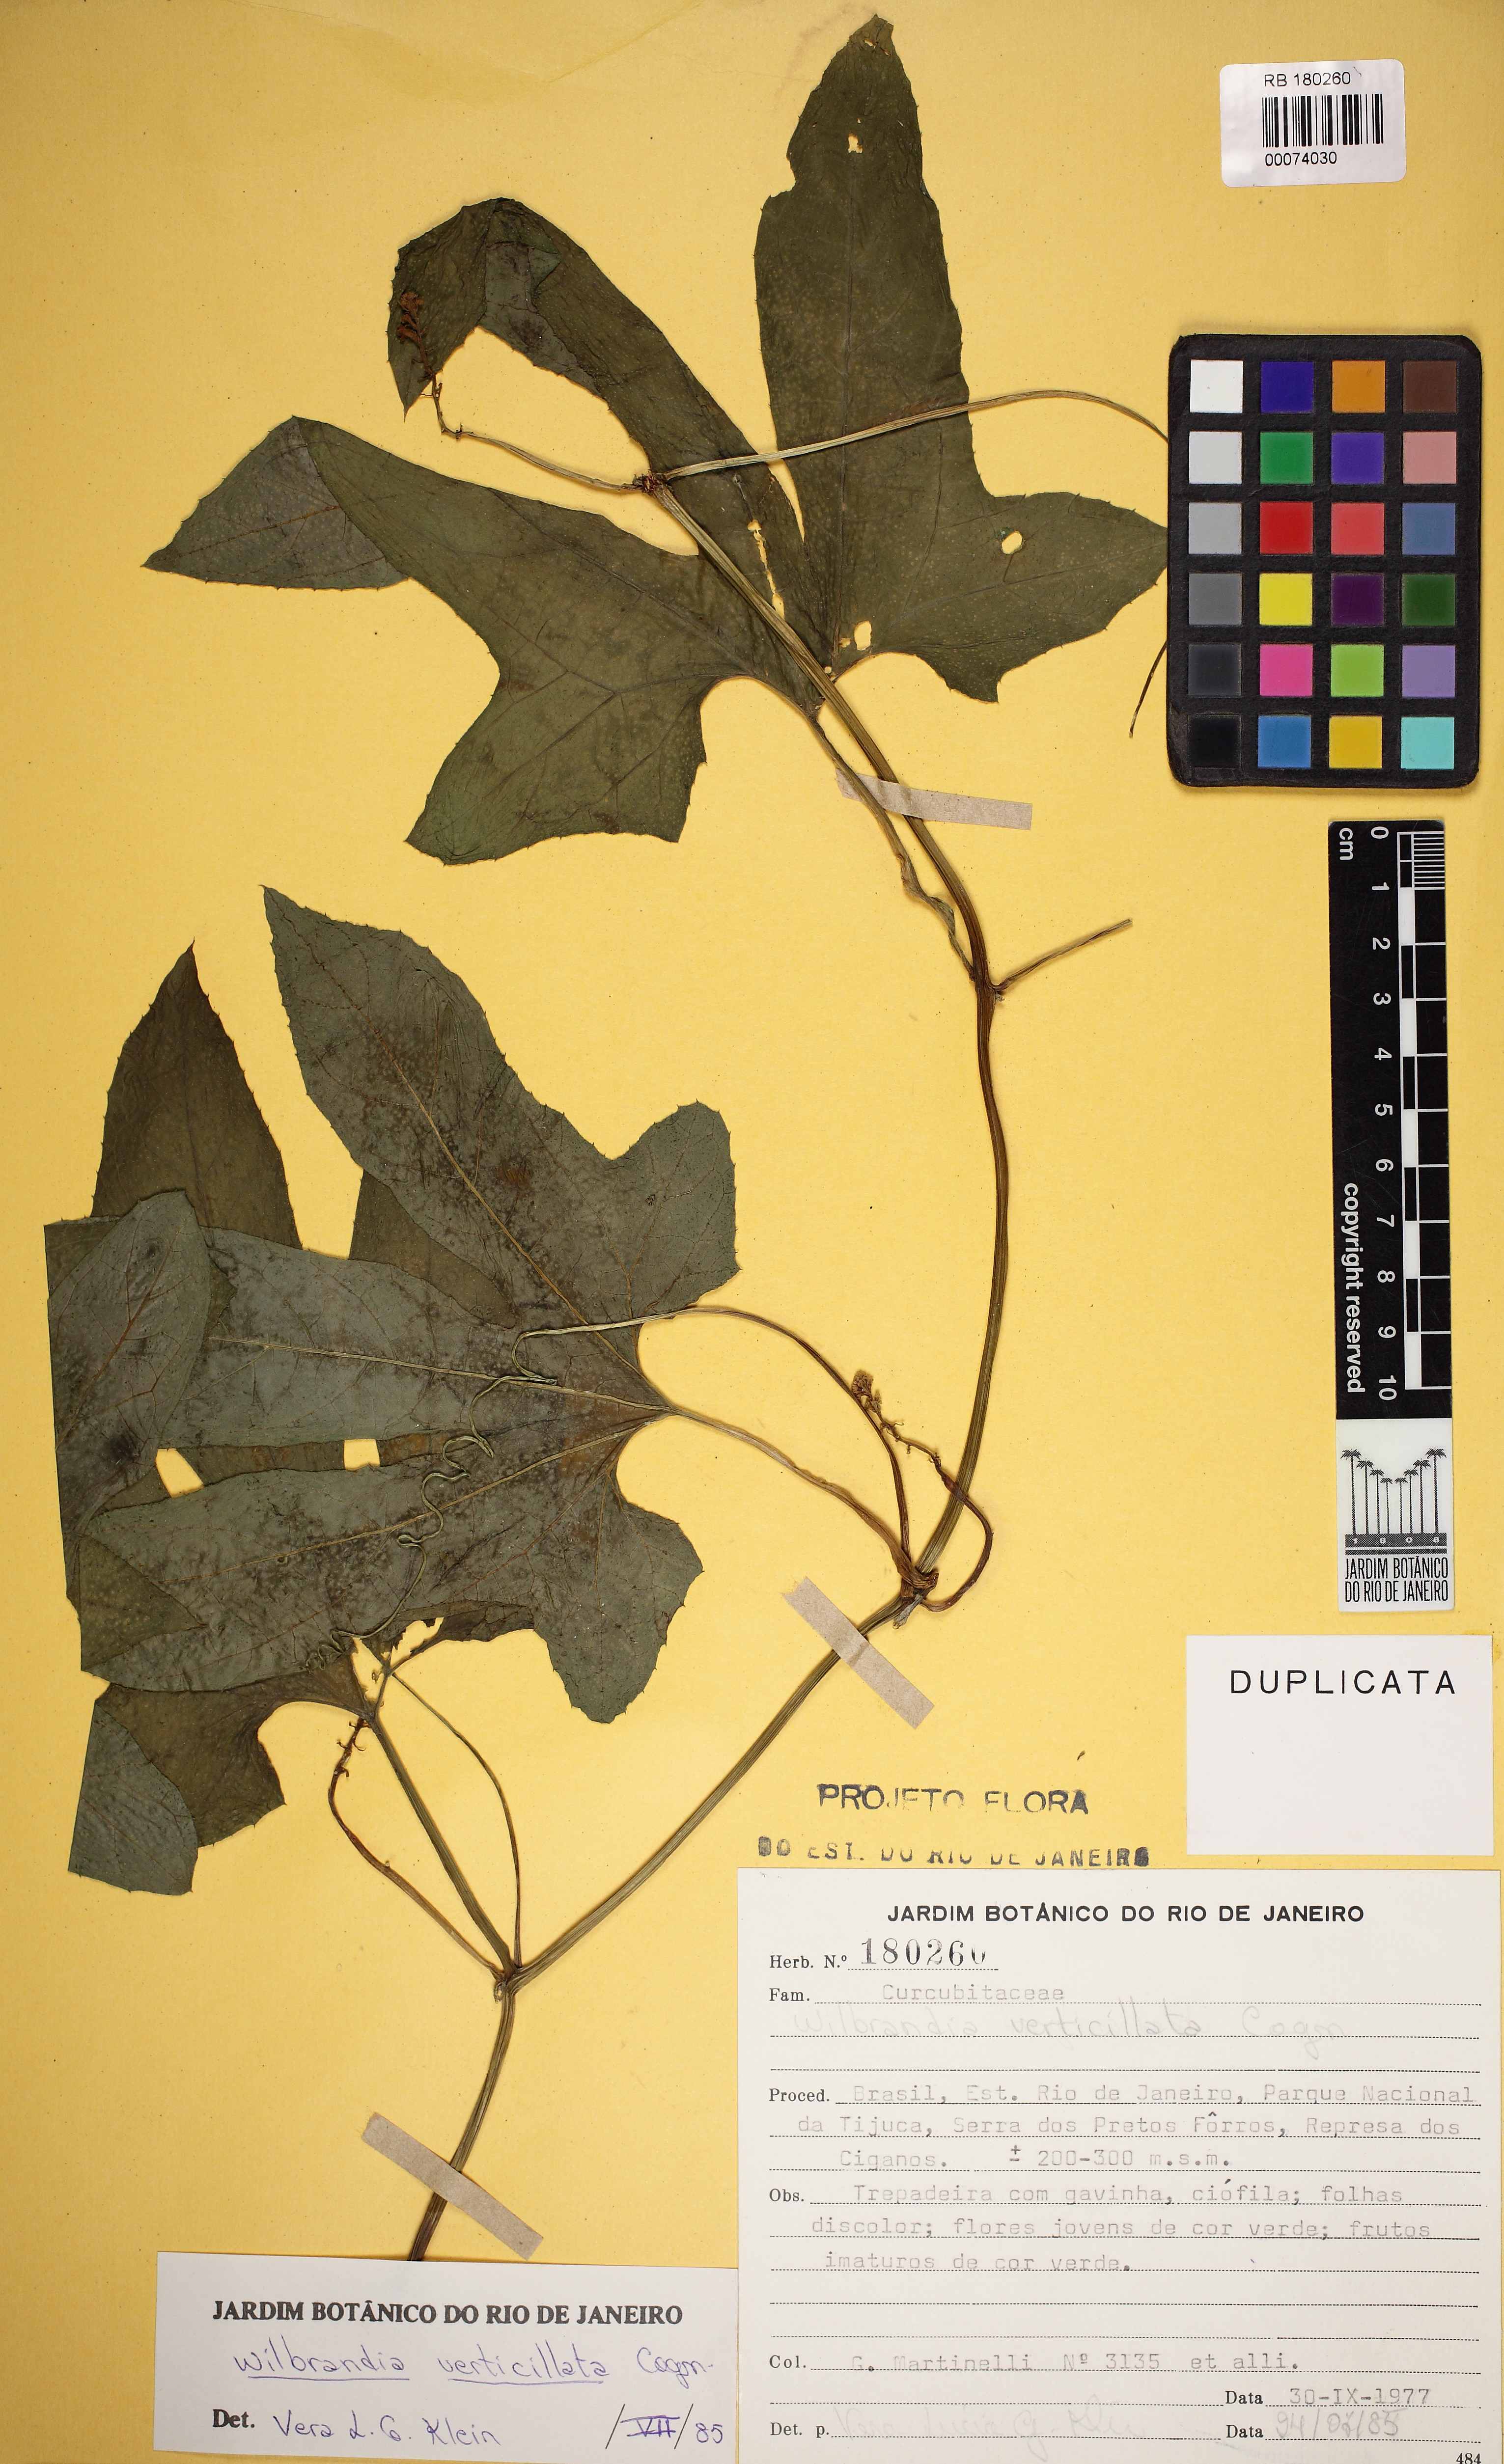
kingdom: Plantae
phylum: Tracheophyta
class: Magnoliopsida
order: Cucurbitales
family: Cucurbitaceae
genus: Wilbrandia
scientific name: Wilbrandia verticillata
